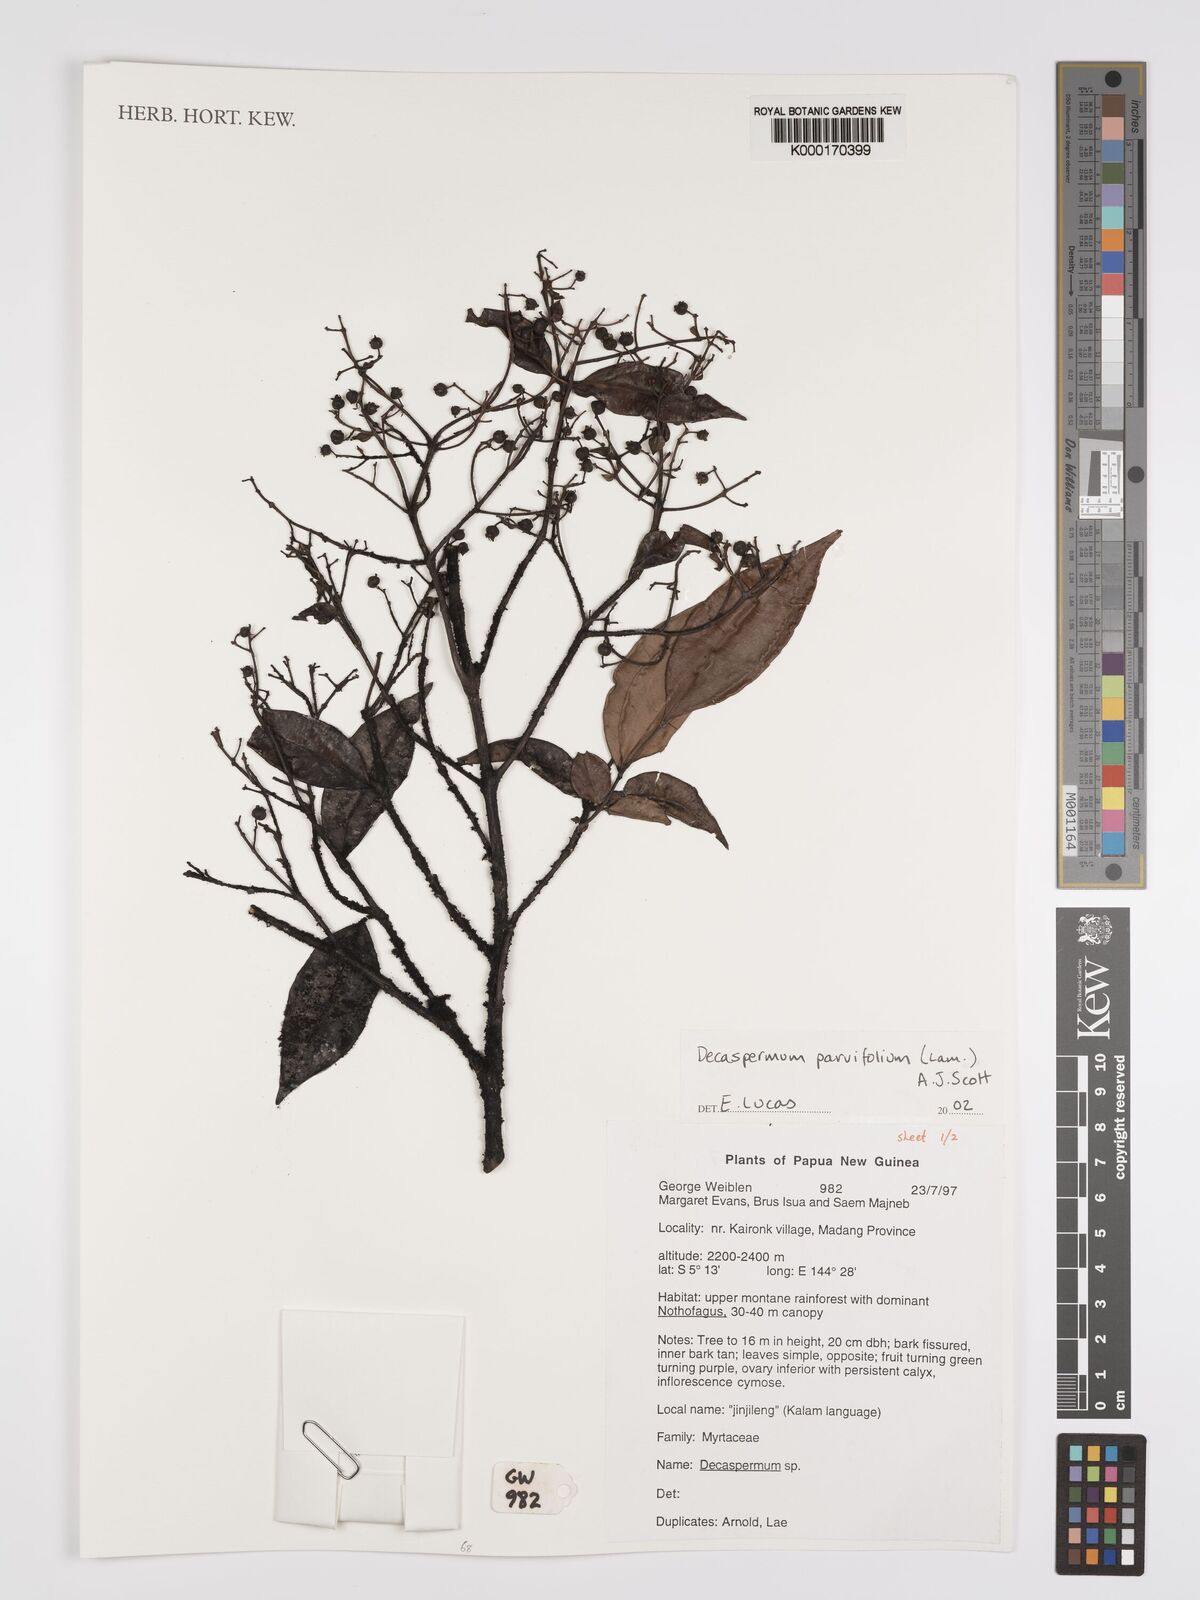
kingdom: Plantae
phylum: Tracheophyta
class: Magnoliopsida
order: Myrtales
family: Myrtaceae
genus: Decaspermum
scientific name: Decaspermum parviflorum
